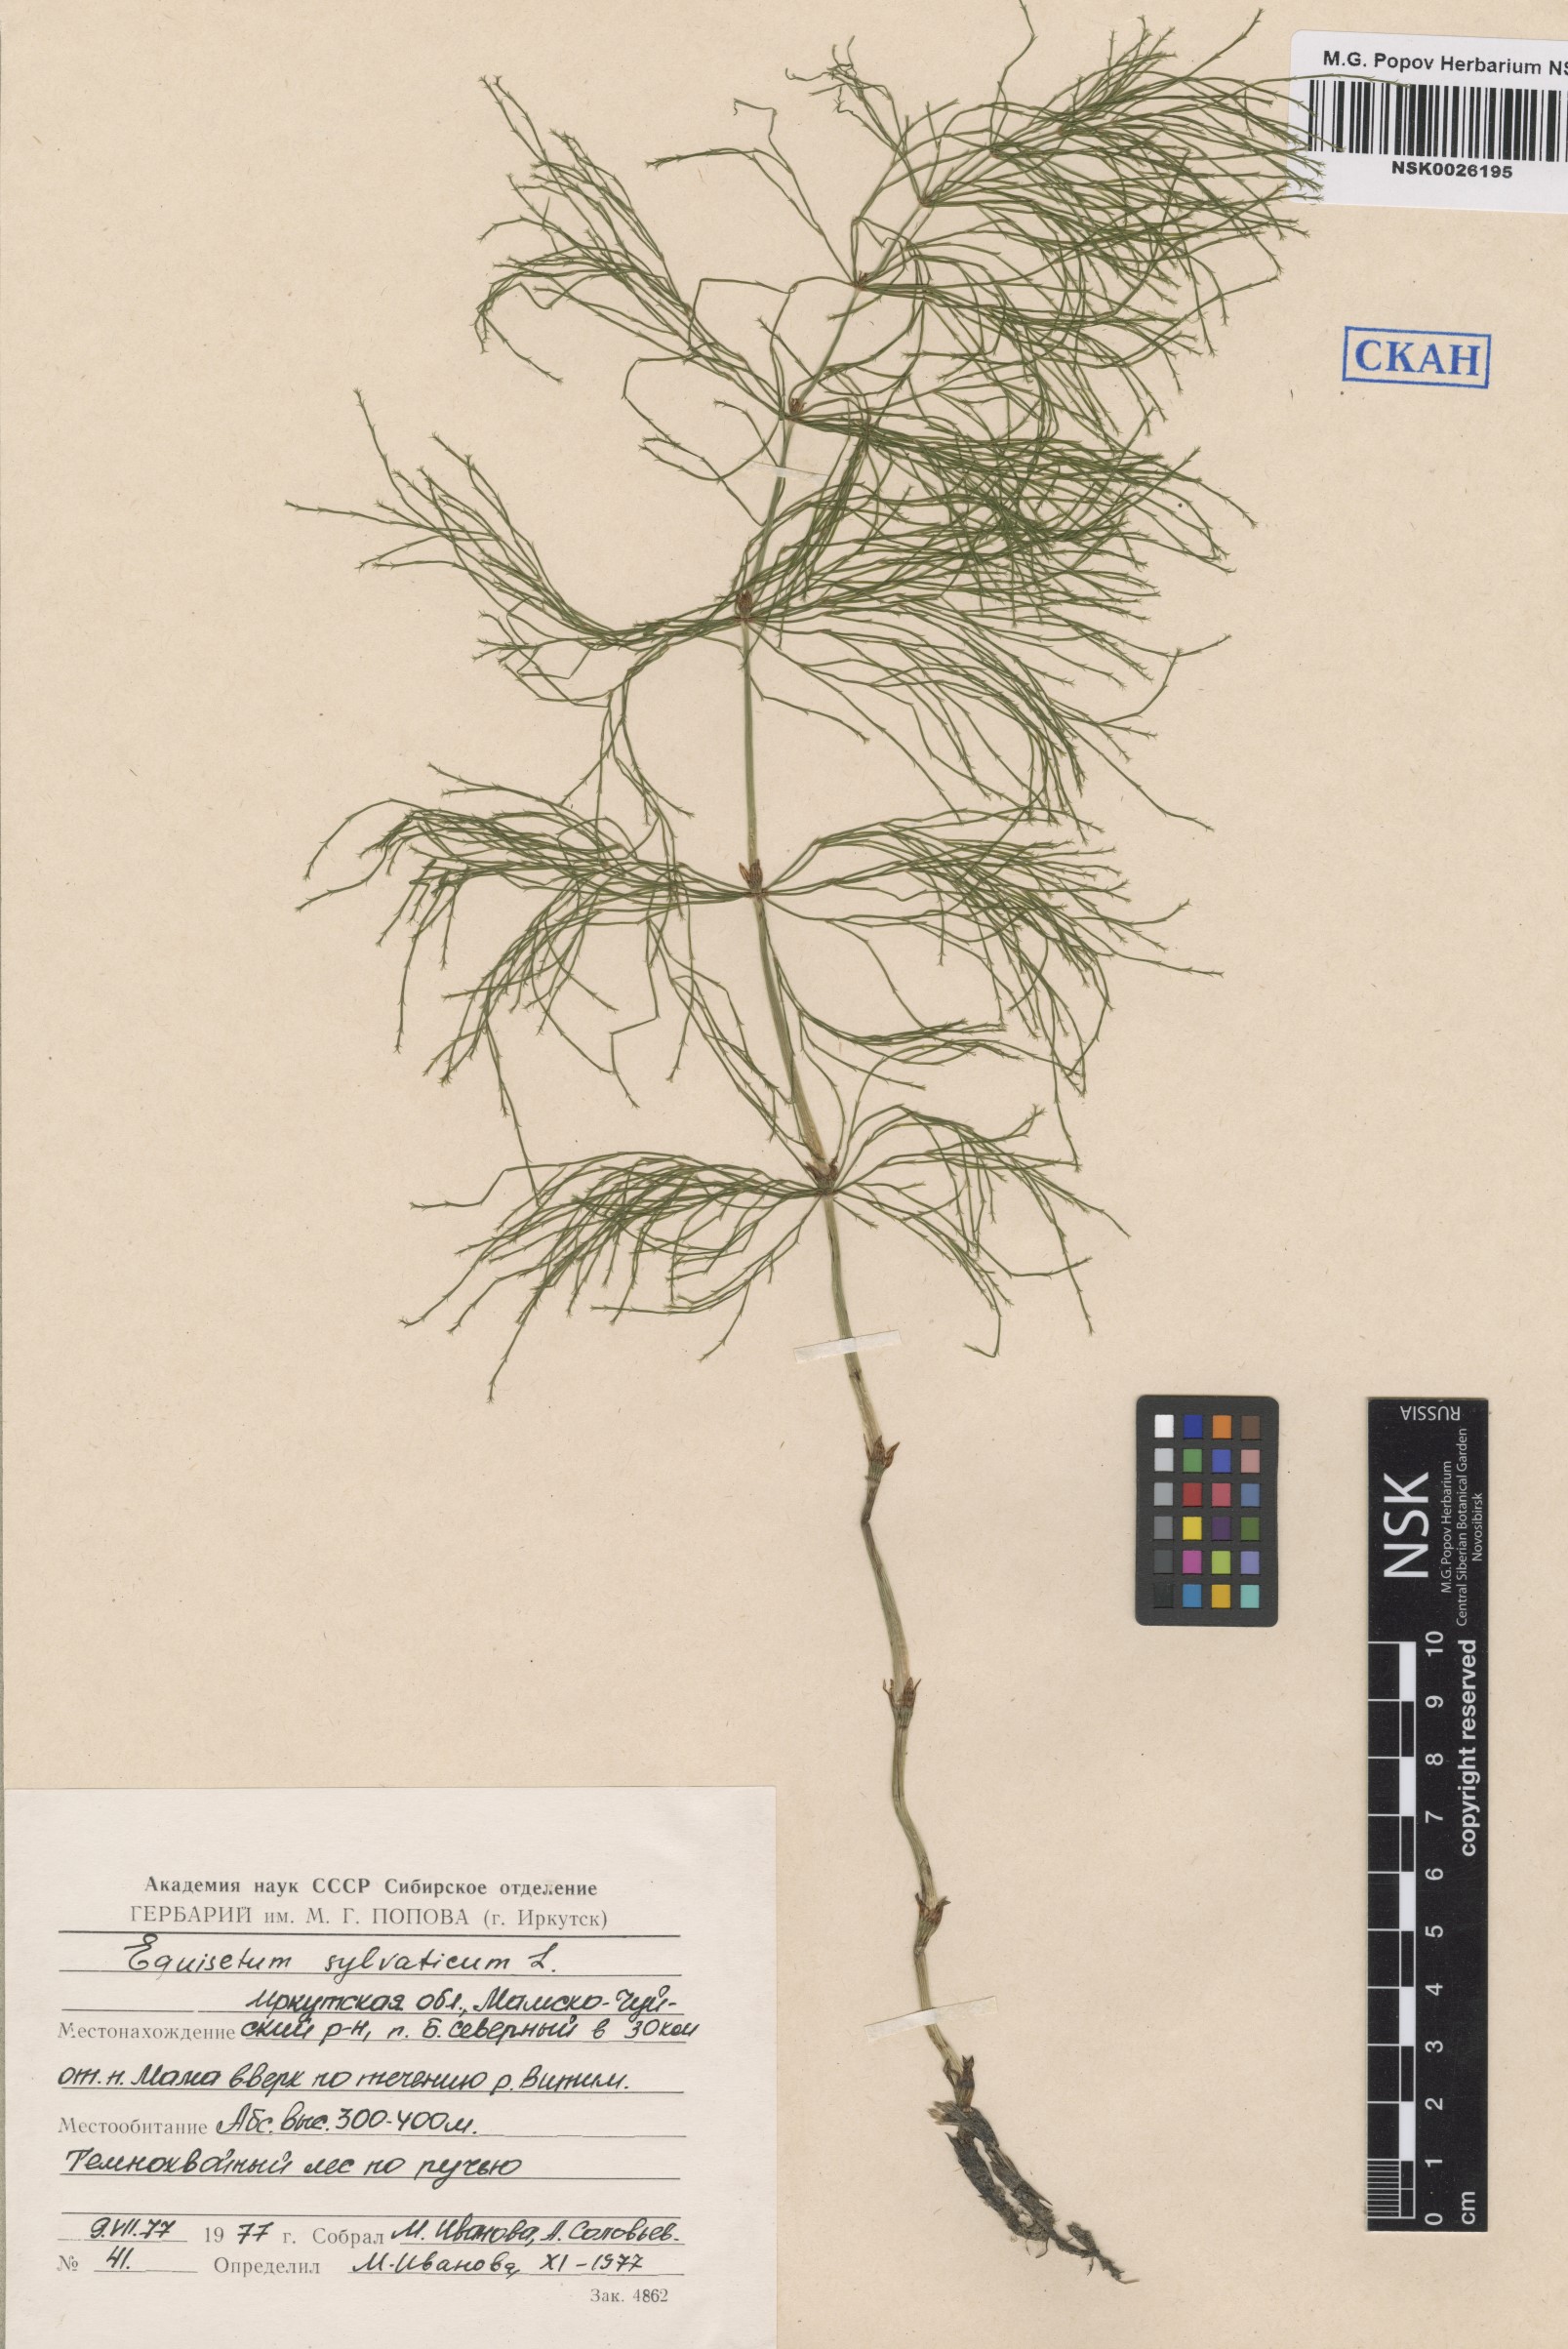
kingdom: Plantae
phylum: Tracheophyta
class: Polypodiopsida
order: Equisetales
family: Equisetaceae
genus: Equisetum
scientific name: Equisetum sylvaticum
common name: Wood horsetail
